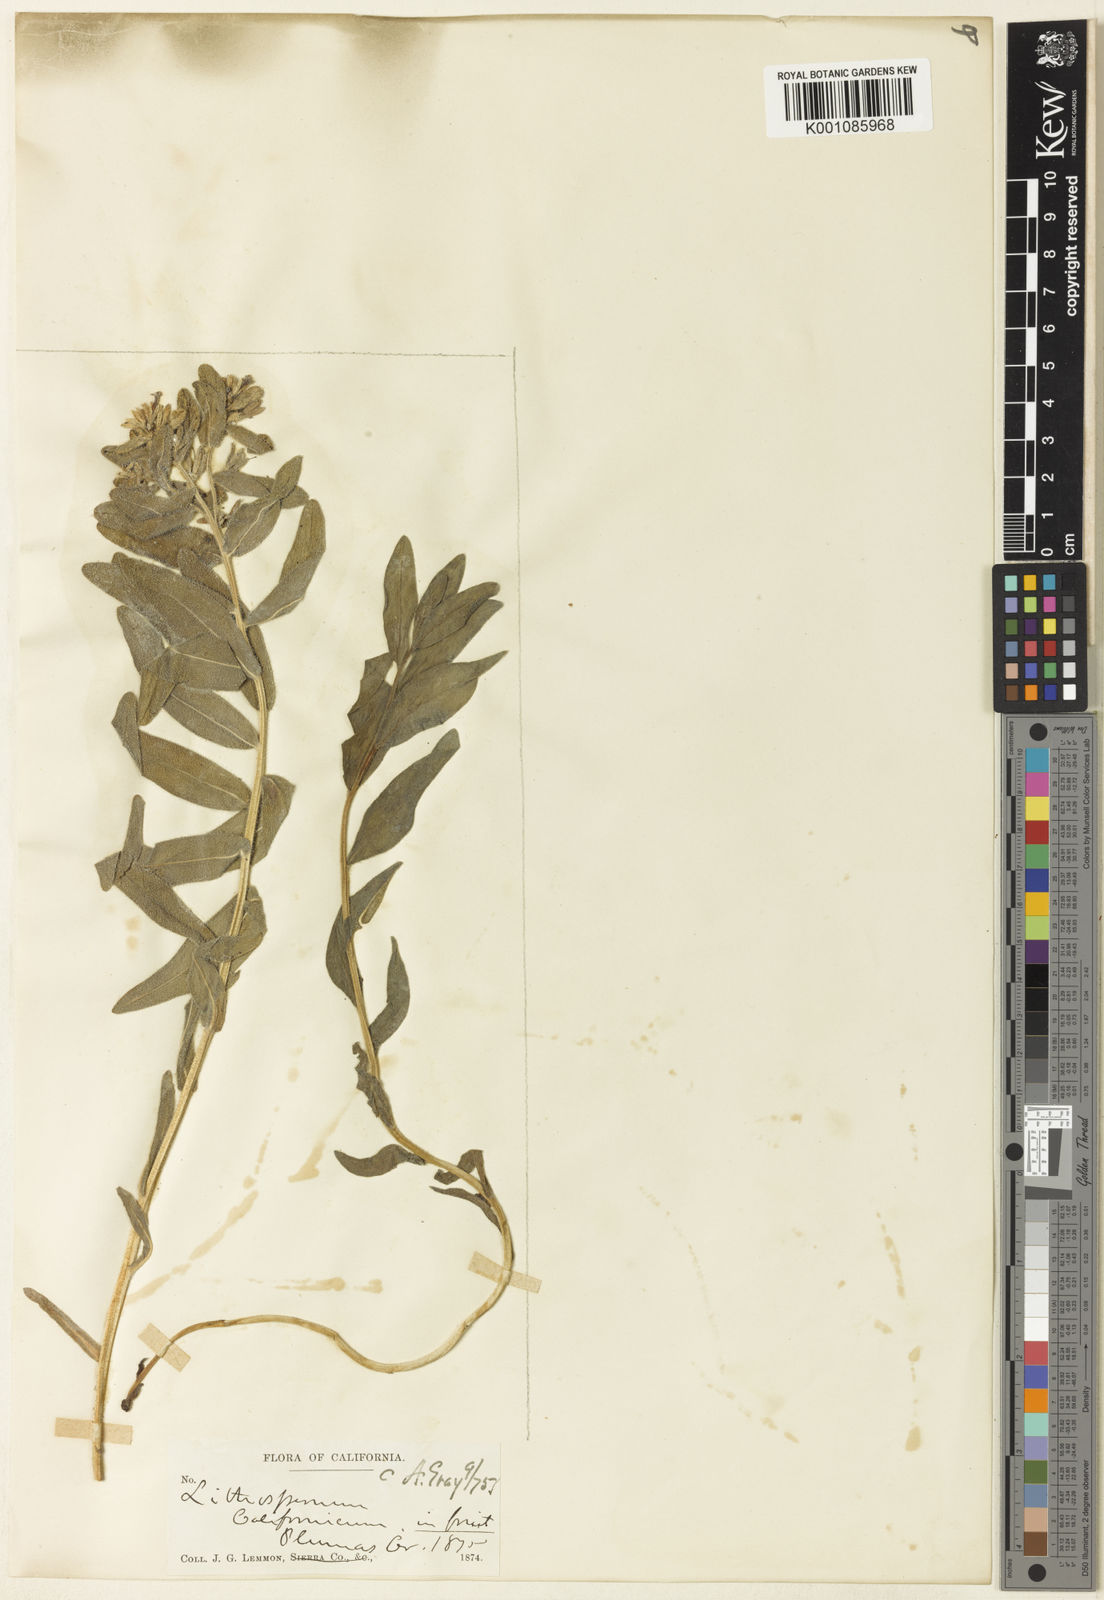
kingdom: Plantae
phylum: Tracheophyta
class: Magnoliopsida
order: Boraginales
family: Boraginaceae
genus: Lithospermum
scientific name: Lithospermum californicum
